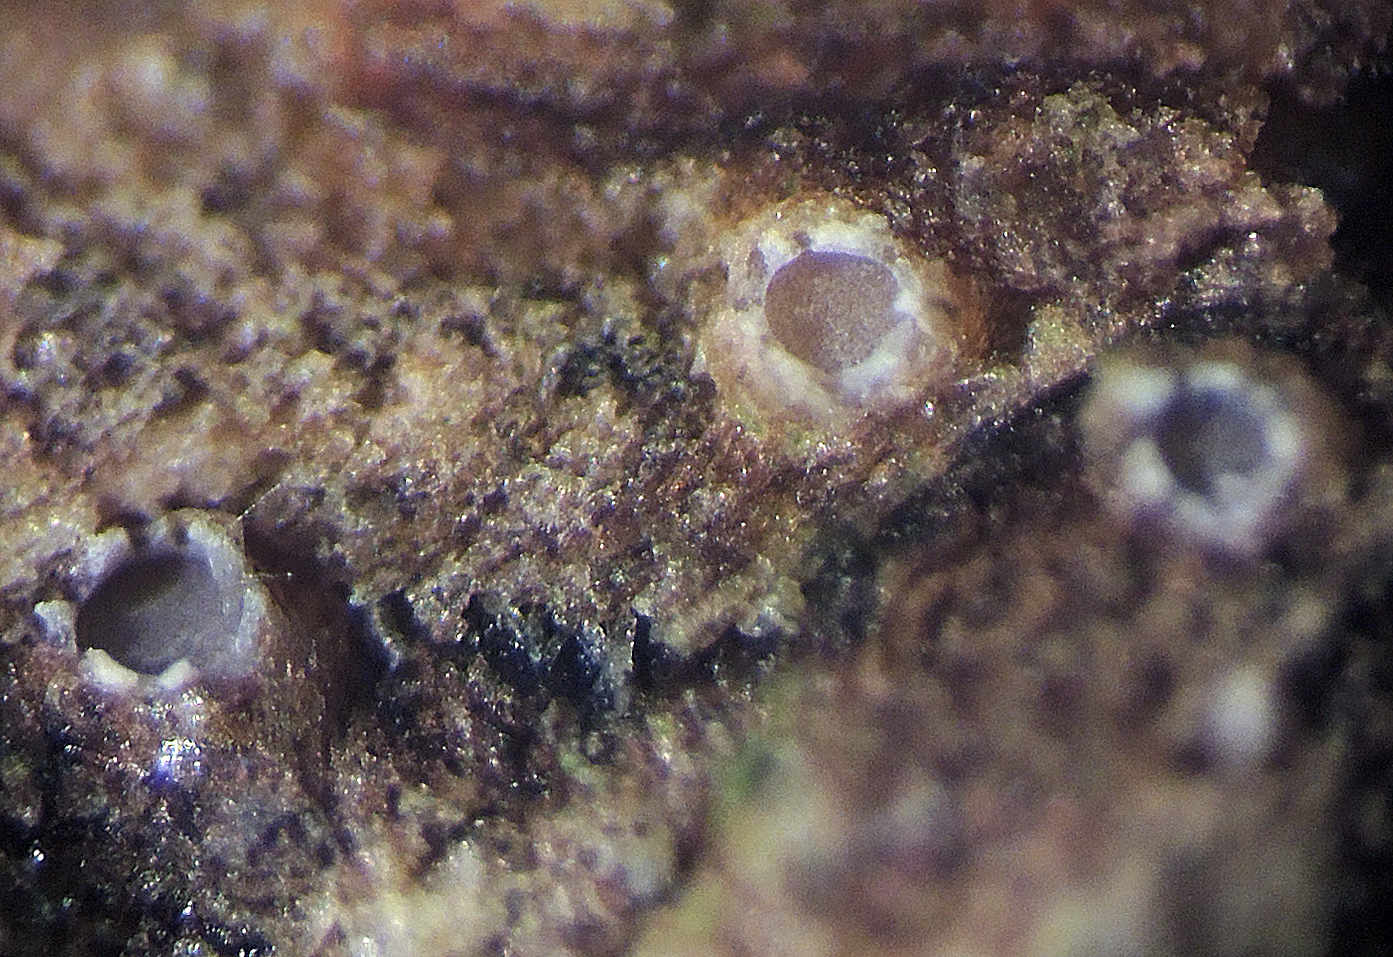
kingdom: Fungi
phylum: Ascomycota
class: Lecanoromycetes
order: Ostropales
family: Stictidaceae
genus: Karstenia
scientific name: Karstenia rhopaloides
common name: grårosa barkhul
